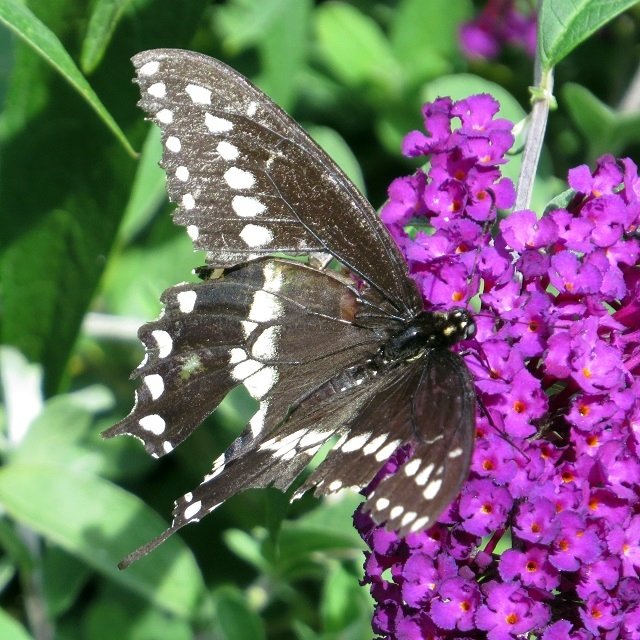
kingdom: Animalia
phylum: Arthropoda
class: Insecta
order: Lepidoptera
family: Papilionidae
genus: Papilio
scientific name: Papilio polyxenes
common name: Black Swallowtail
